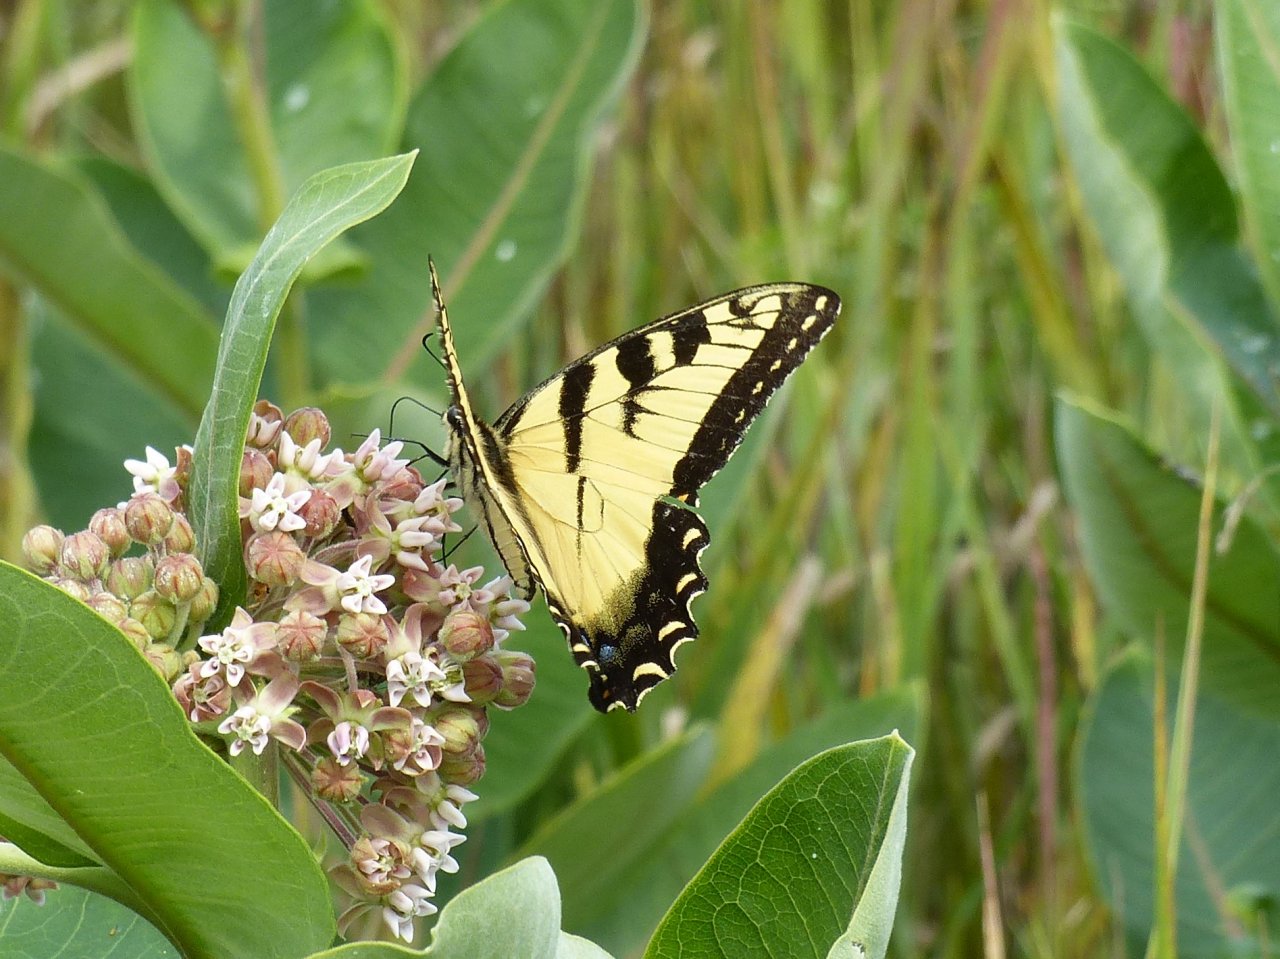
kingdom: Animalia
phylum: Arthropoda
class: Insecta
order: Lepidoptera
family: Papilionidae
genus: Pterourus
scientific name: Pterourus glaucus
